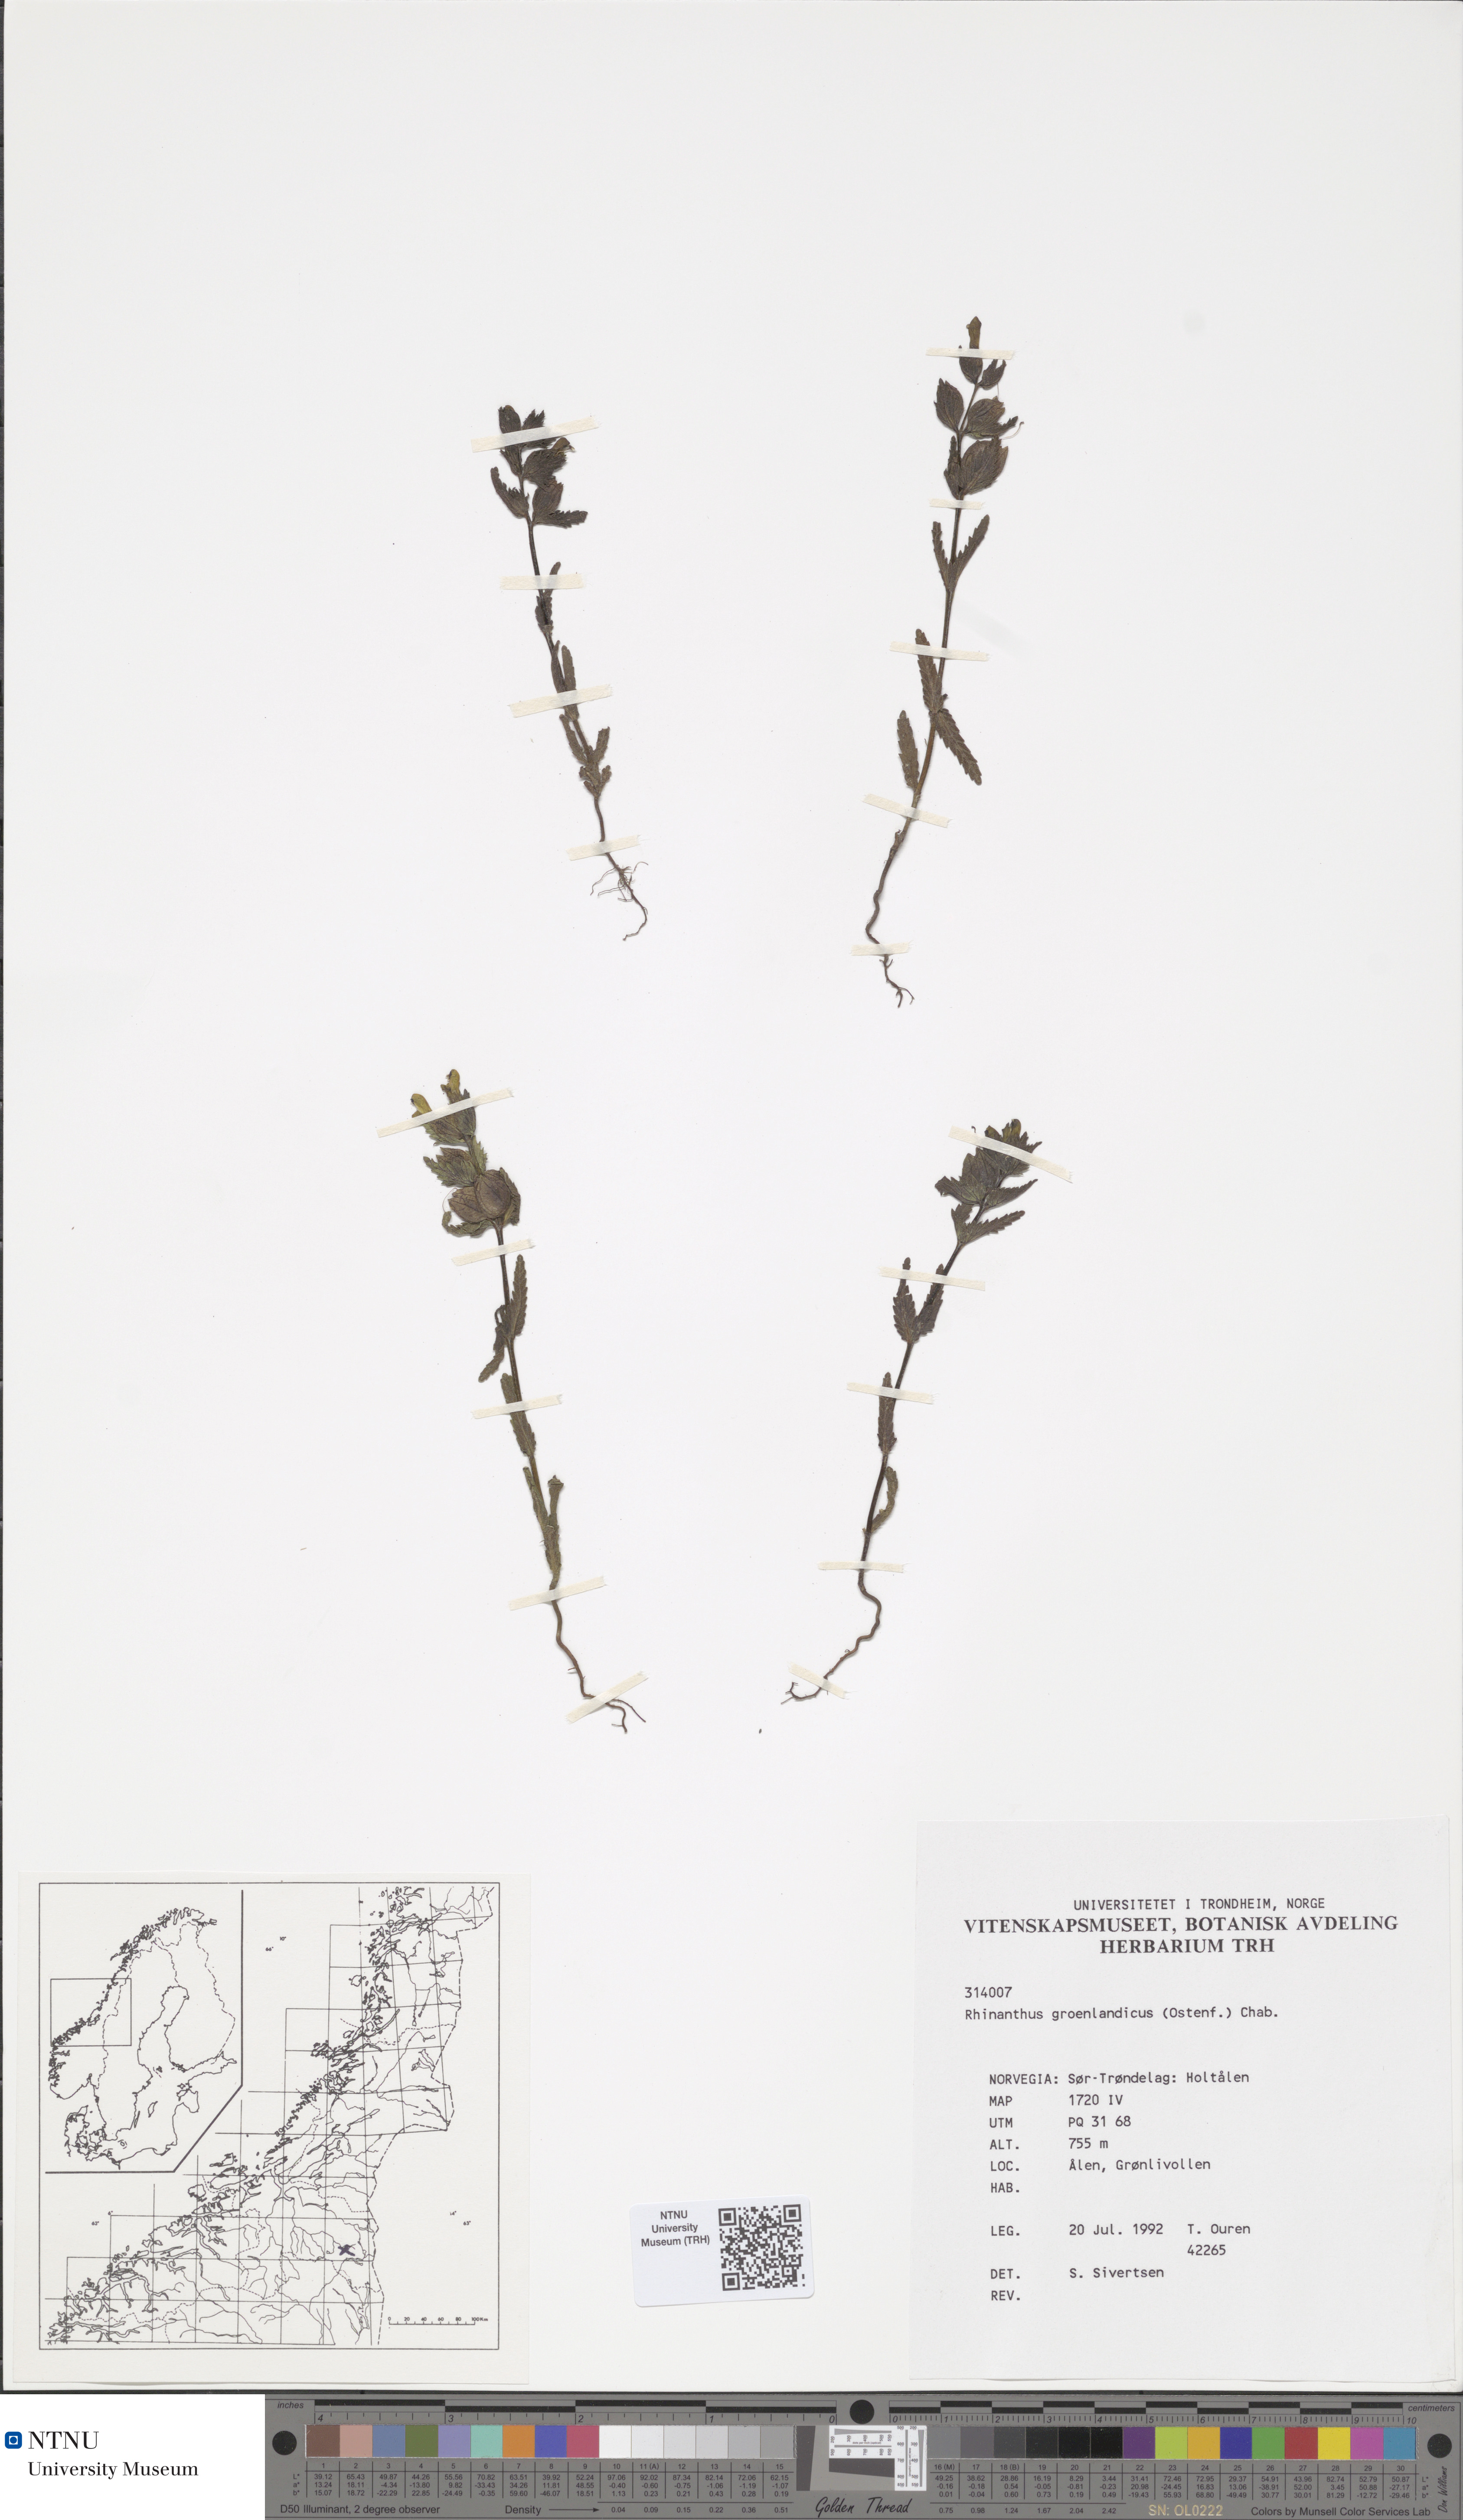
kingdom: Plantae
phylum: Tracheophyta
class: Magnoliopsida
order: Lamiales
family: Orobanchaceae
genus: Rhinanthus
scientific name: Rhinanthus groenlandicus
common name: Little yellow rattle
